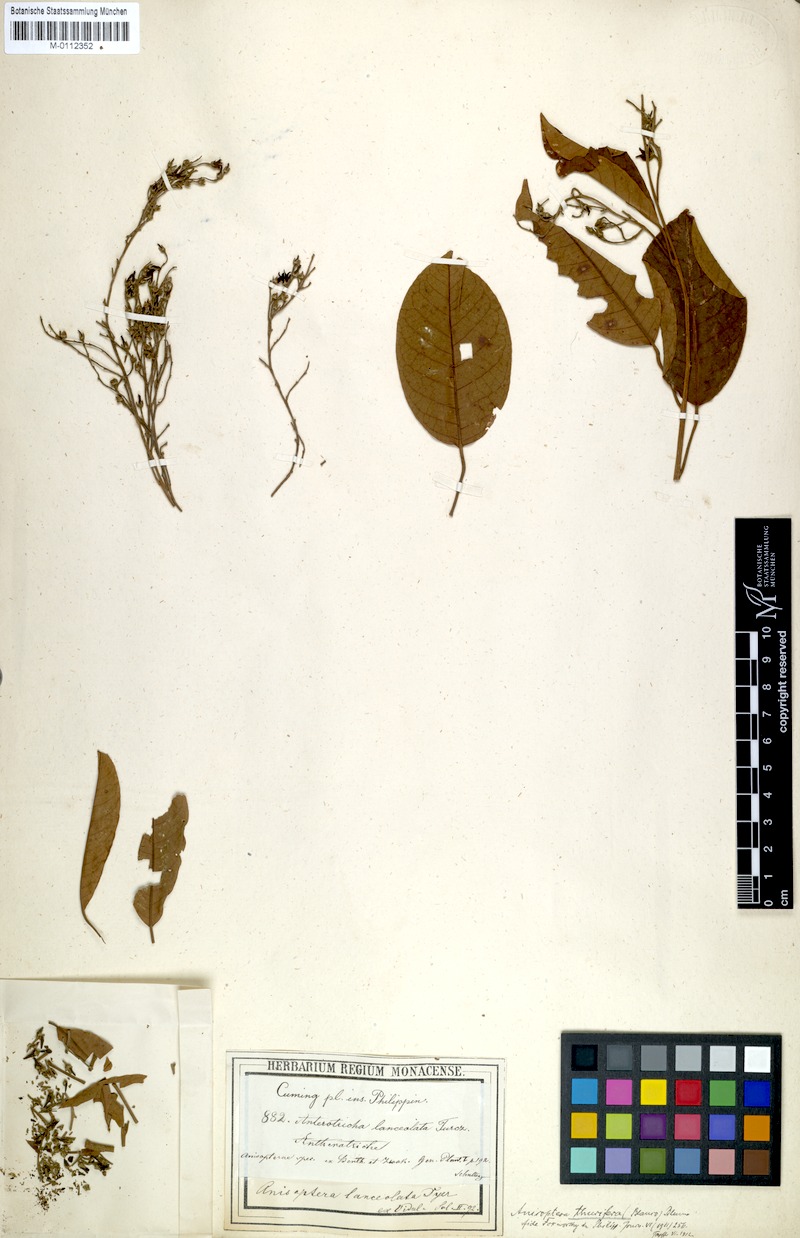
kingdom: Plantae
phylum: Tracheophyta
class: Magnoliopsida
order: Malvales
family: Dipterocarpaceae
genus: Anisoptera
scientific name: Anisoptera thurifera
